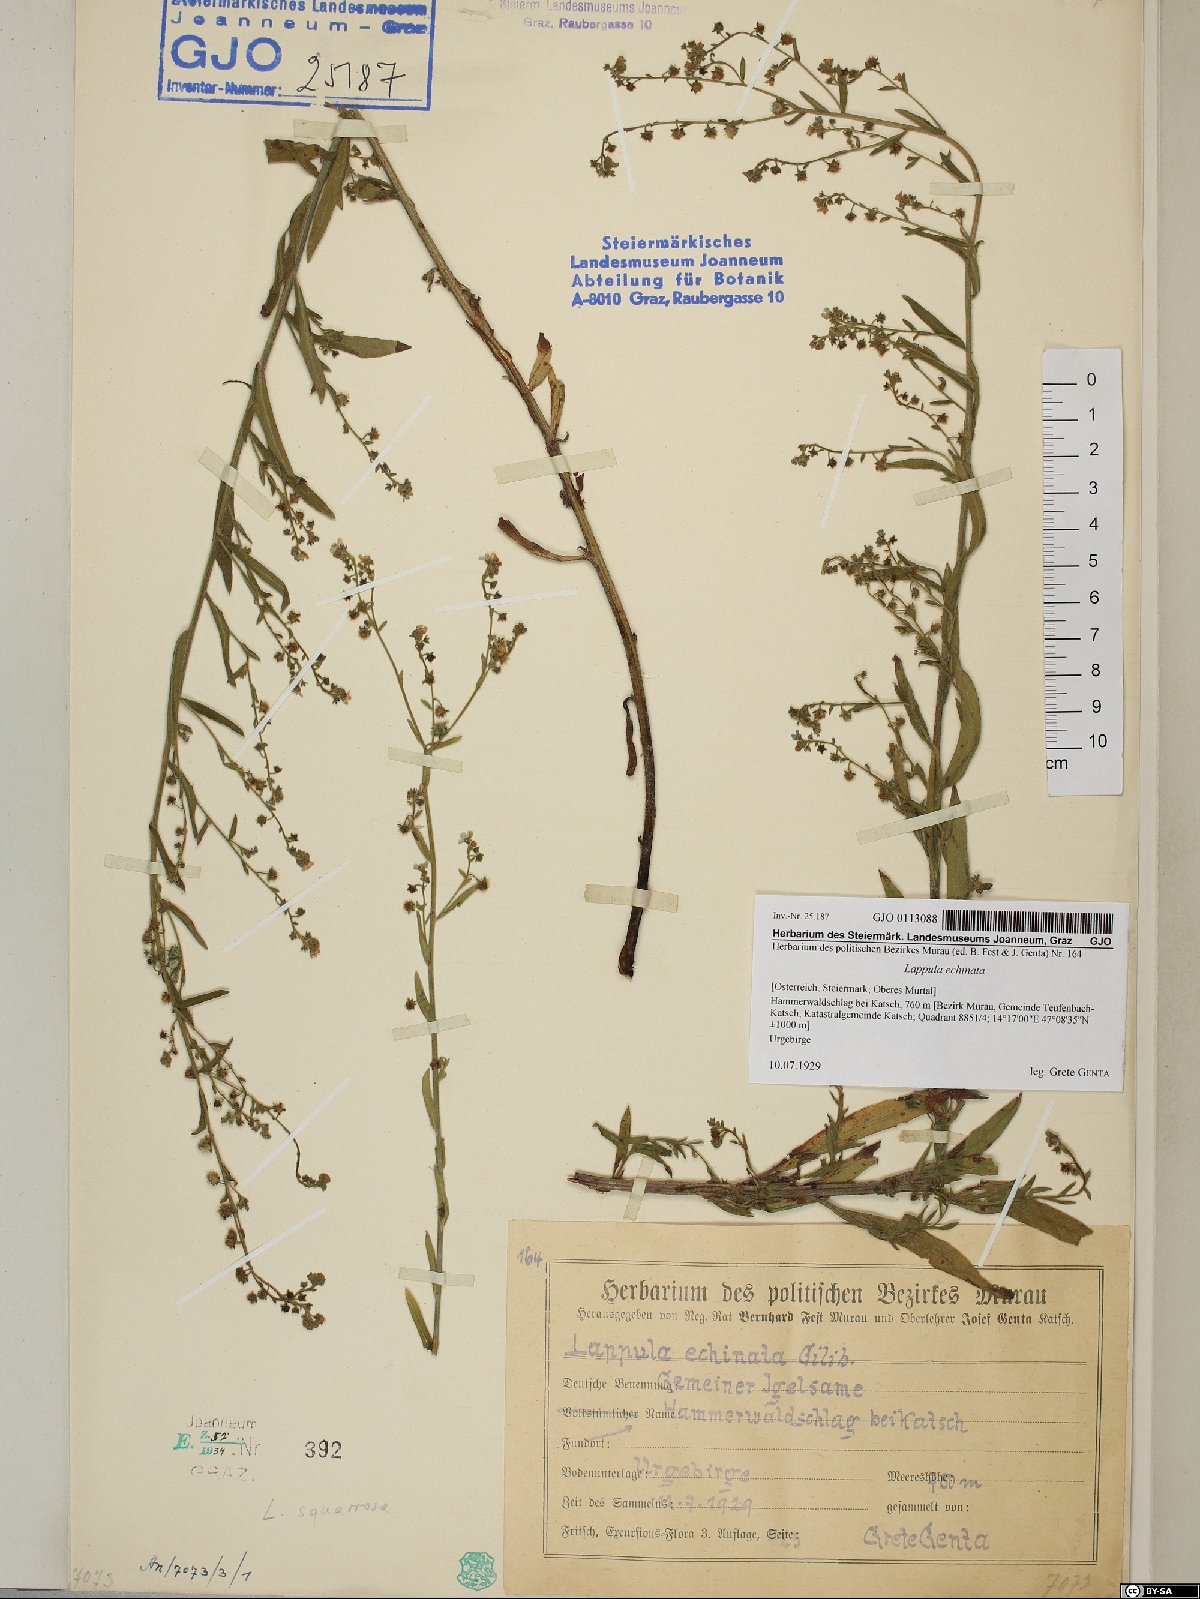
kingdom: Plantae
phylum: Tracheophyta
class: Magnoliopsida
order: Boraginales
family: Boraginaceae
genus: Lappula
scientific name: Lappula squarrosa
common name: European stickseed
